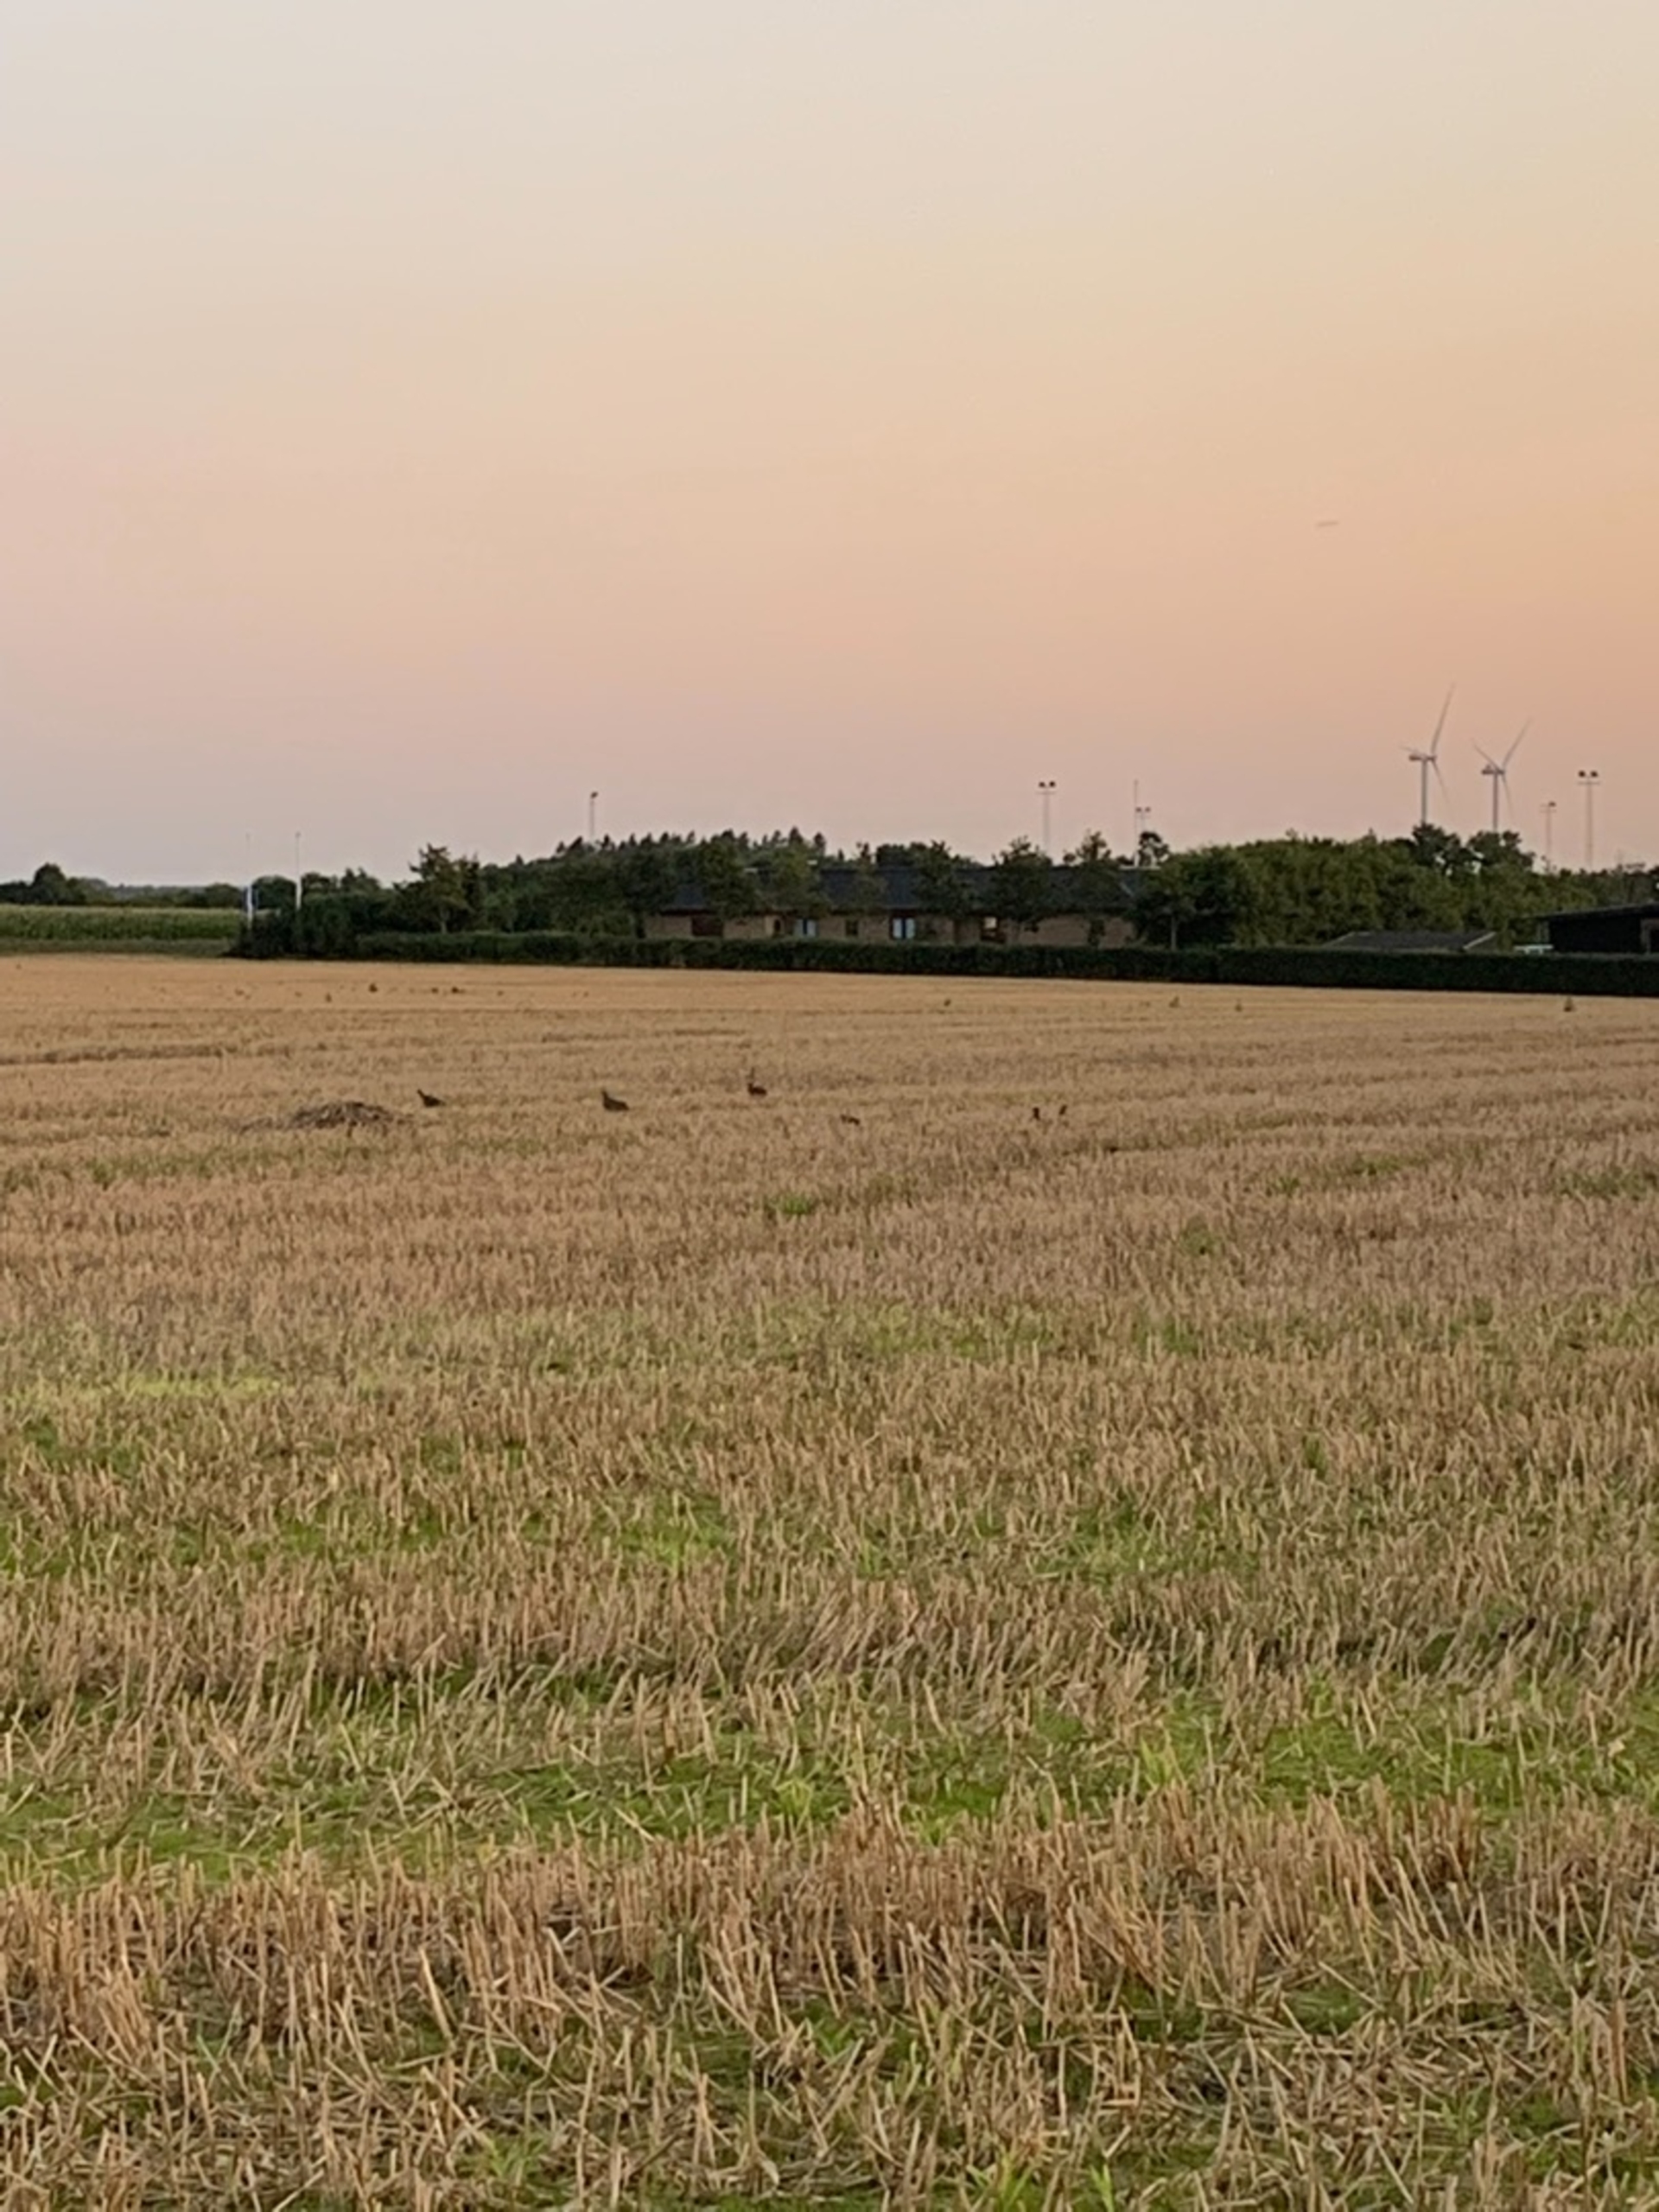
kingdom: Animalia
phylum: Chordata
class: Aves
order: Galliformes
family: Phasianidae
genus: Perdix
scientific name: Perdix perdix
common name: Agerhøne
